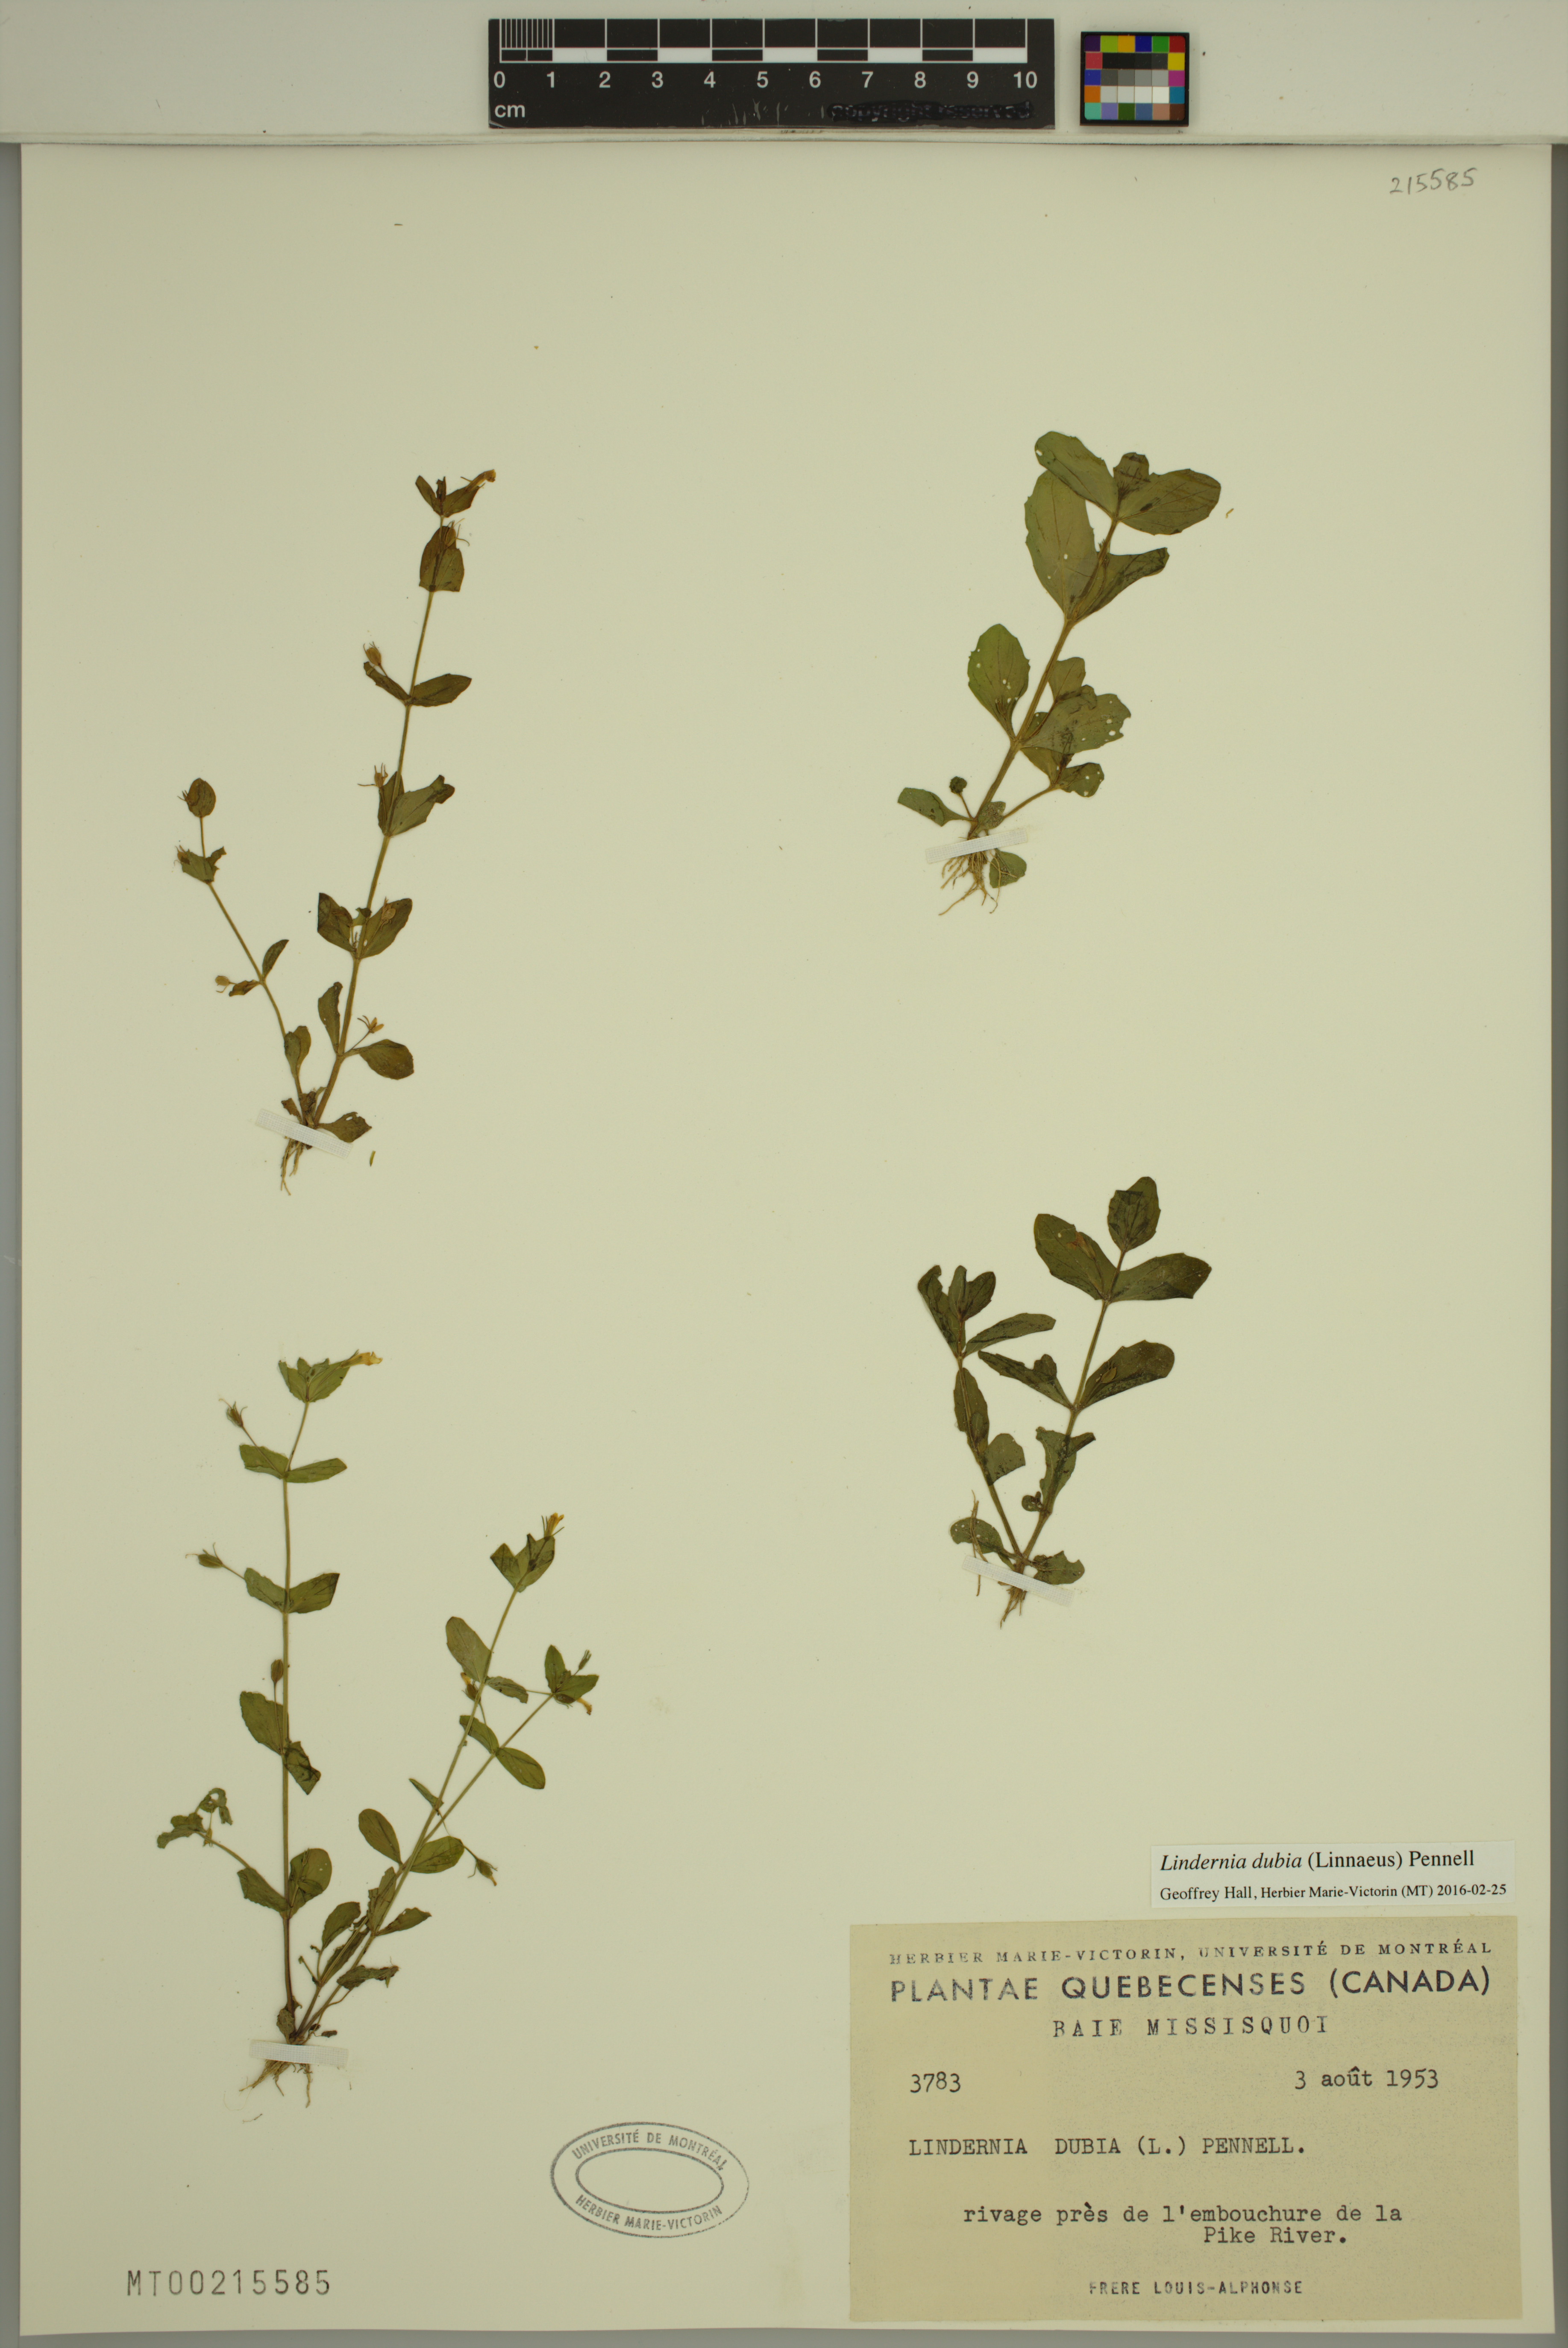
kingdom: Plantae
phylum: Tracheophyta
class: Magnoliopsida
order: Lamiales
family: Linderniaceae
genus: Lindernia
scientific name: Lindernia dubia
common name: Annual false pimpernel
